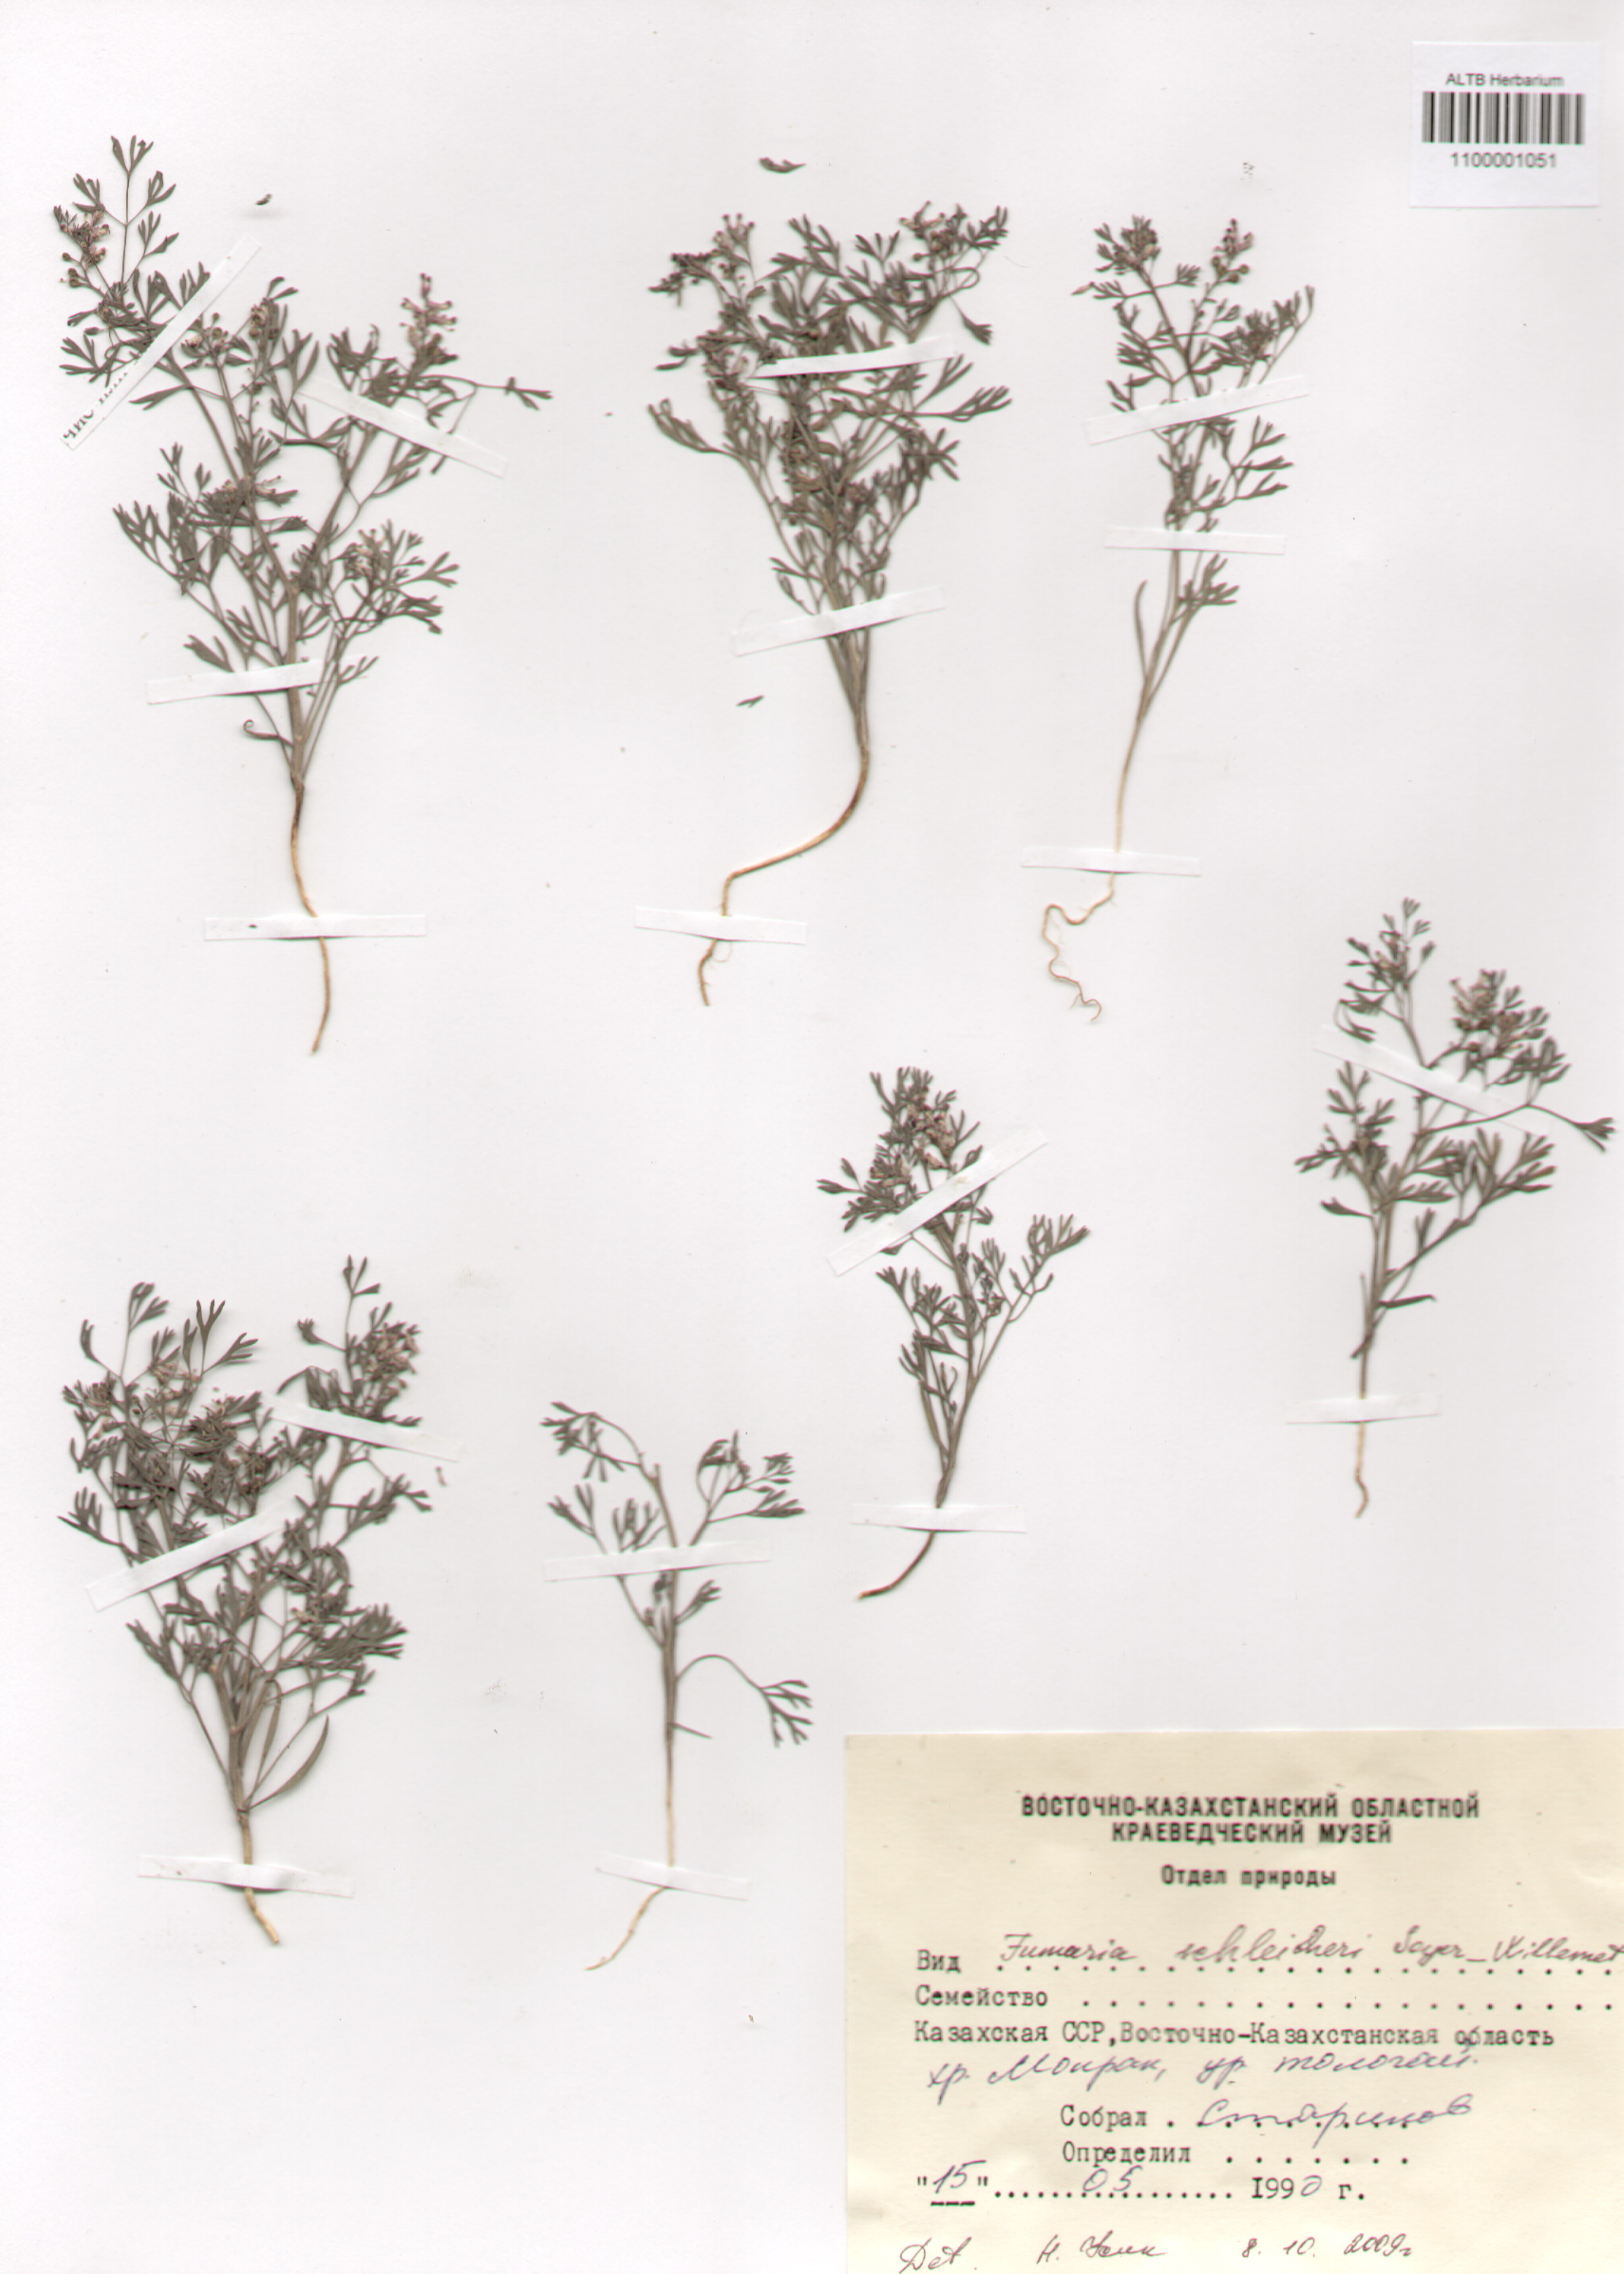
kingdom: Plantae
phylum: Tracheophyta
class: Magnoliopsida
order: Ranunculales
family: Papaveraceae
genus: Fumaria
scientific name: Fumaria schleicheri
